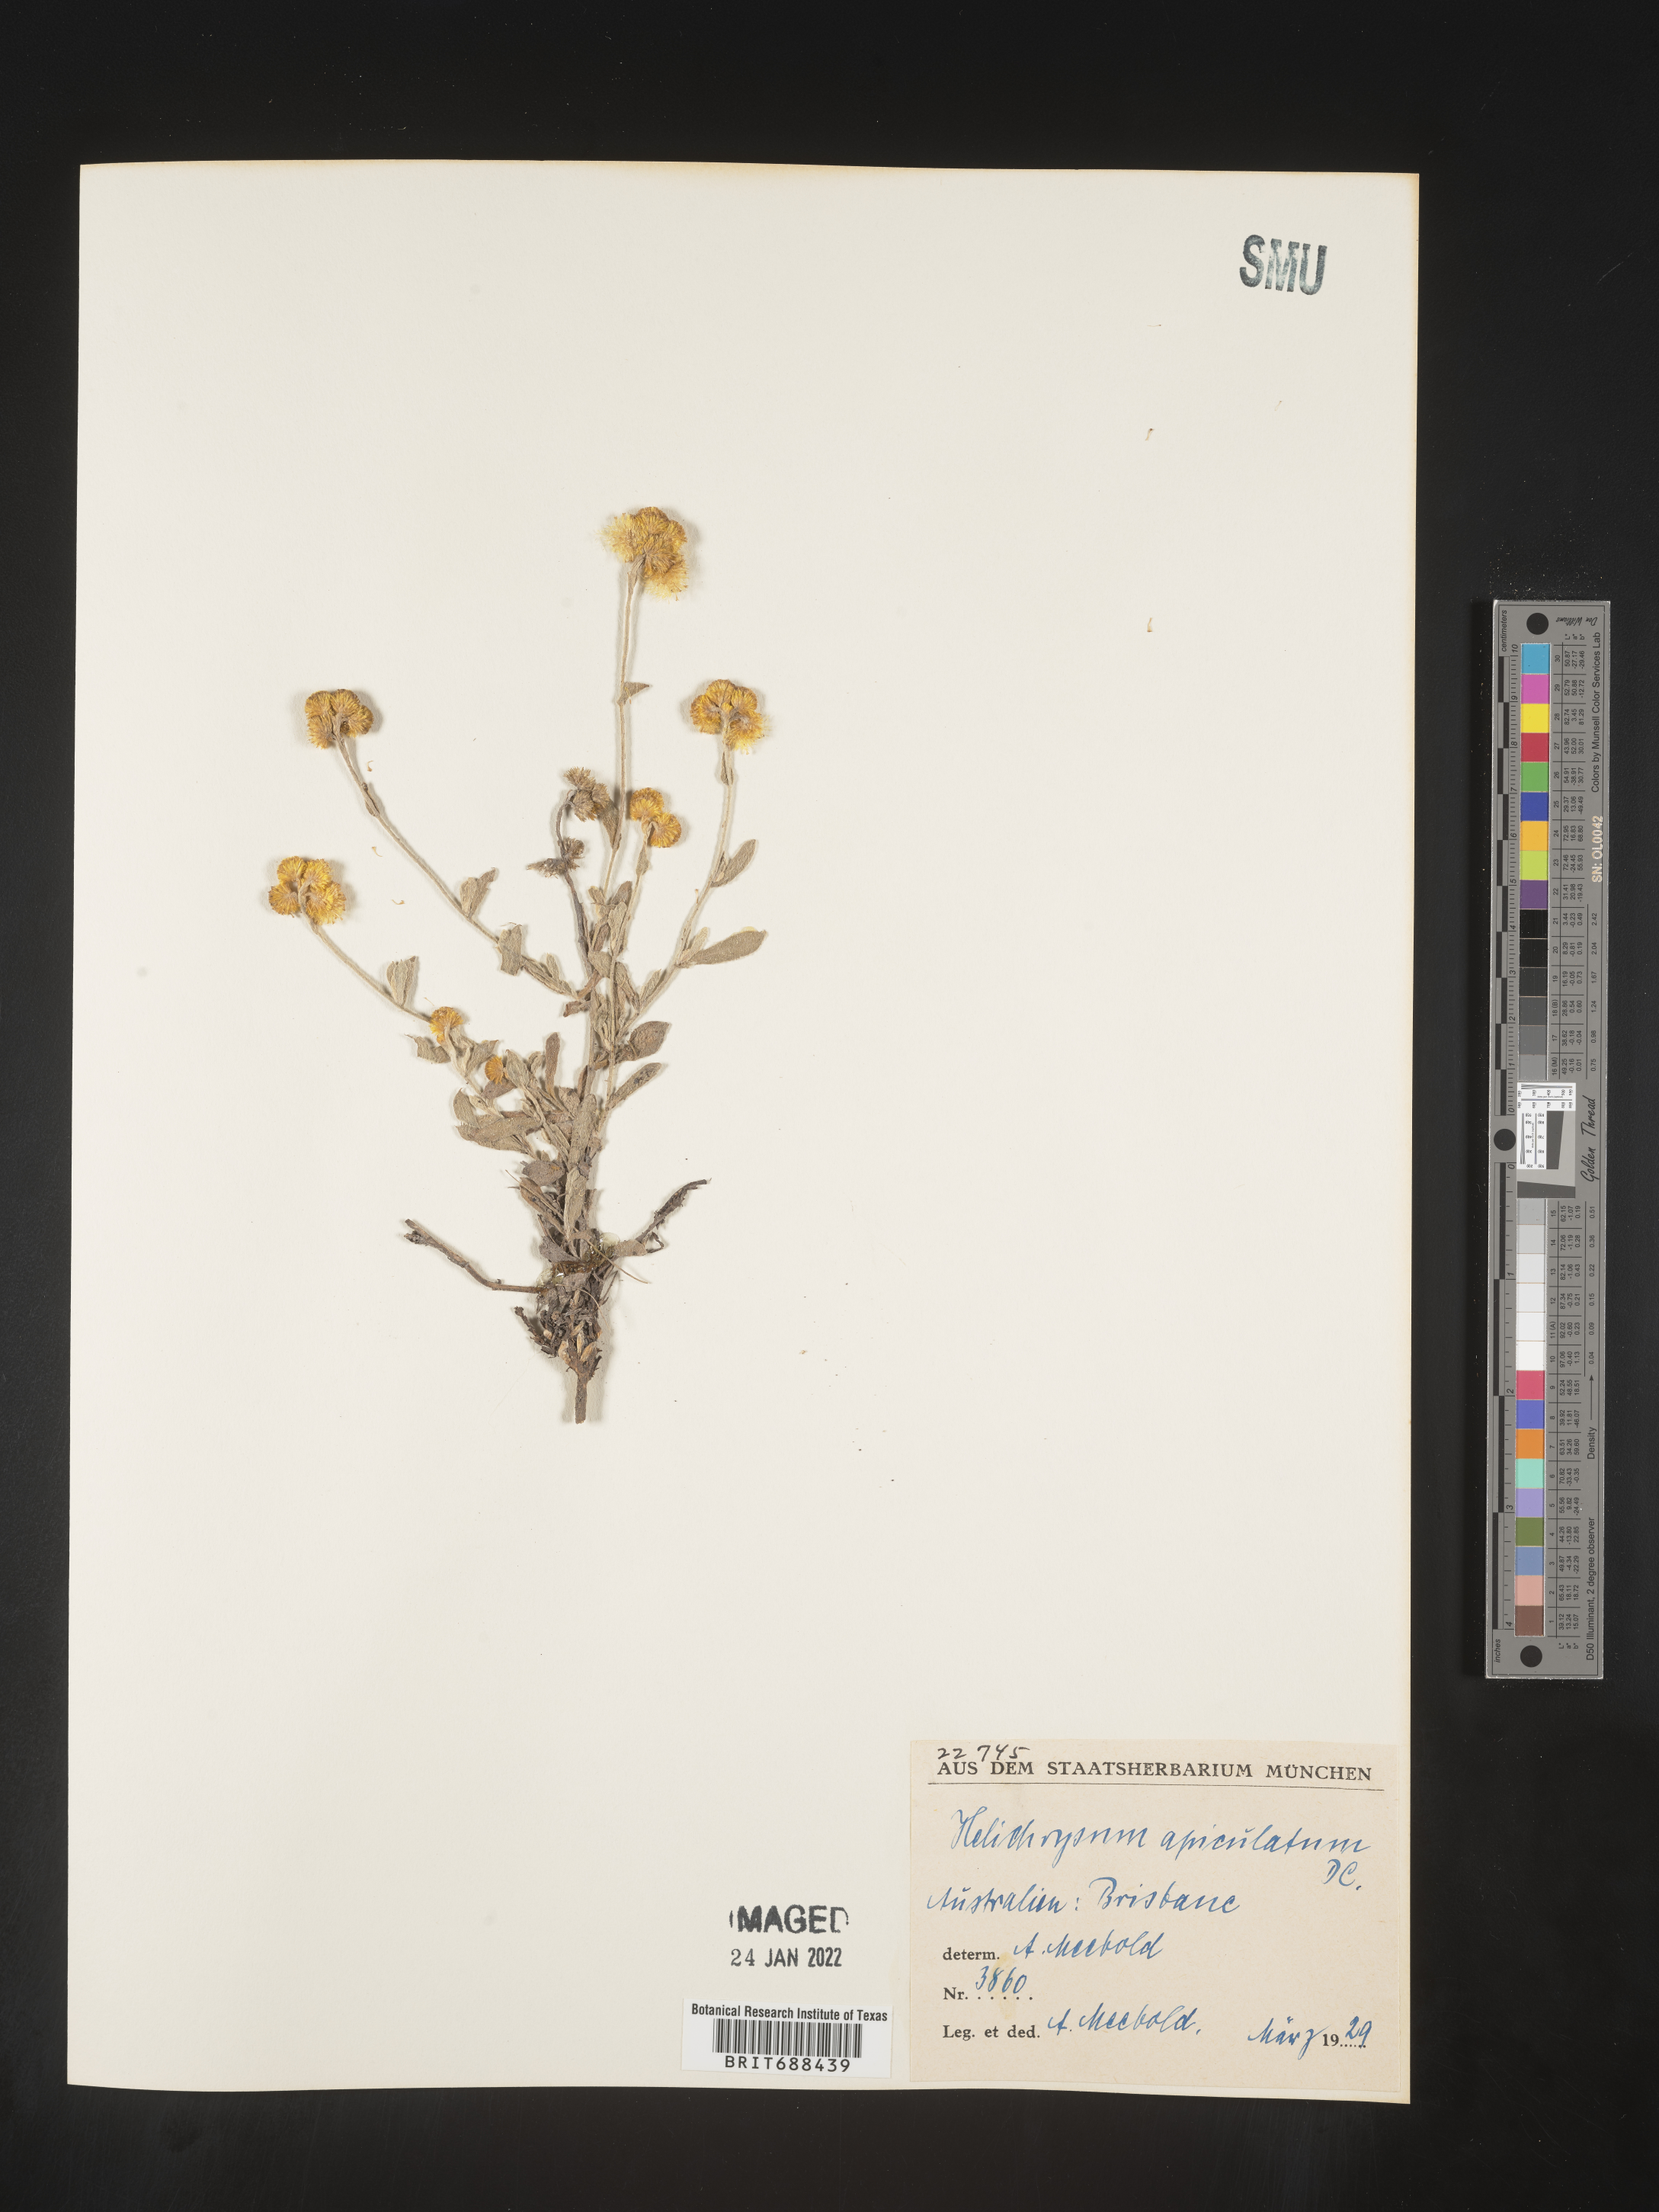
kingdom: Plantae
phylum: Tracheophyta
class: Magnoliopsida
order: Asterales
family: Asteraceae
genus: Chrysocephalum
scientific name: Chrysocephalum
